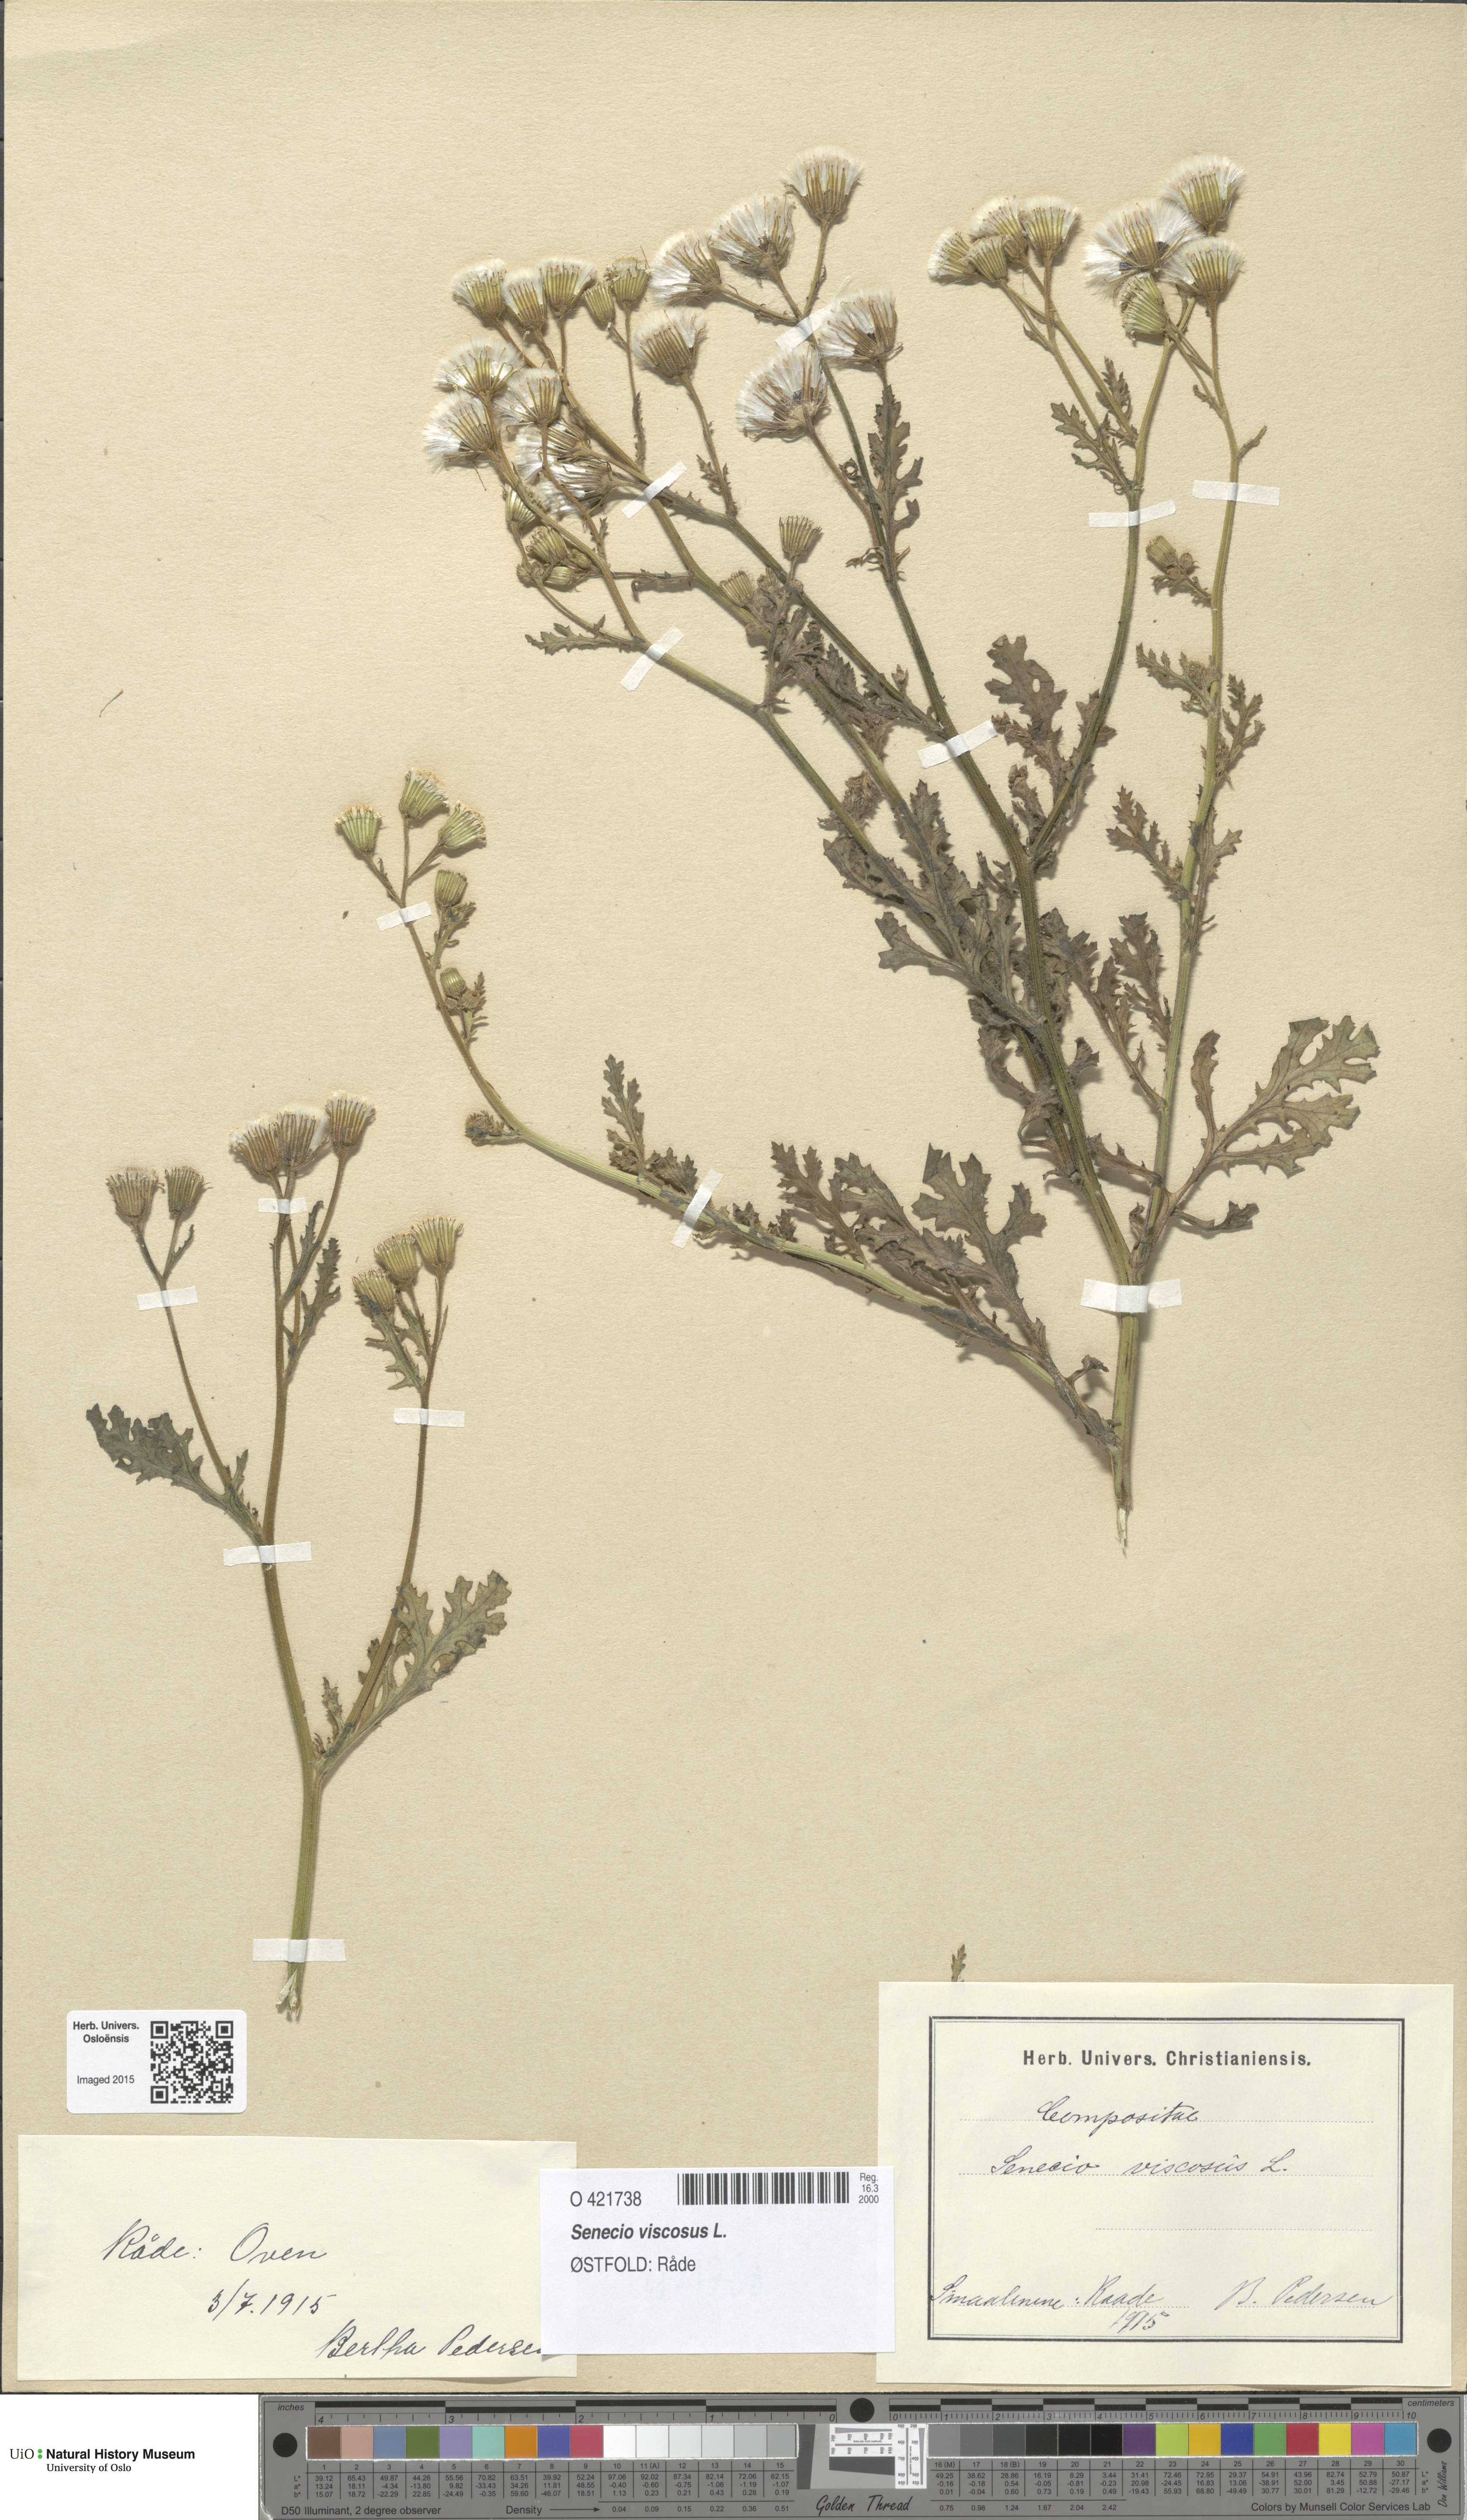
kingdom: Plantae
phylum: Tracheophyta
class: Magnoliopsida
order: Asterales
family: Asteraceae
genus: Senecio
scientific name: Senecio viscosus
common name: Sticky groundsel
